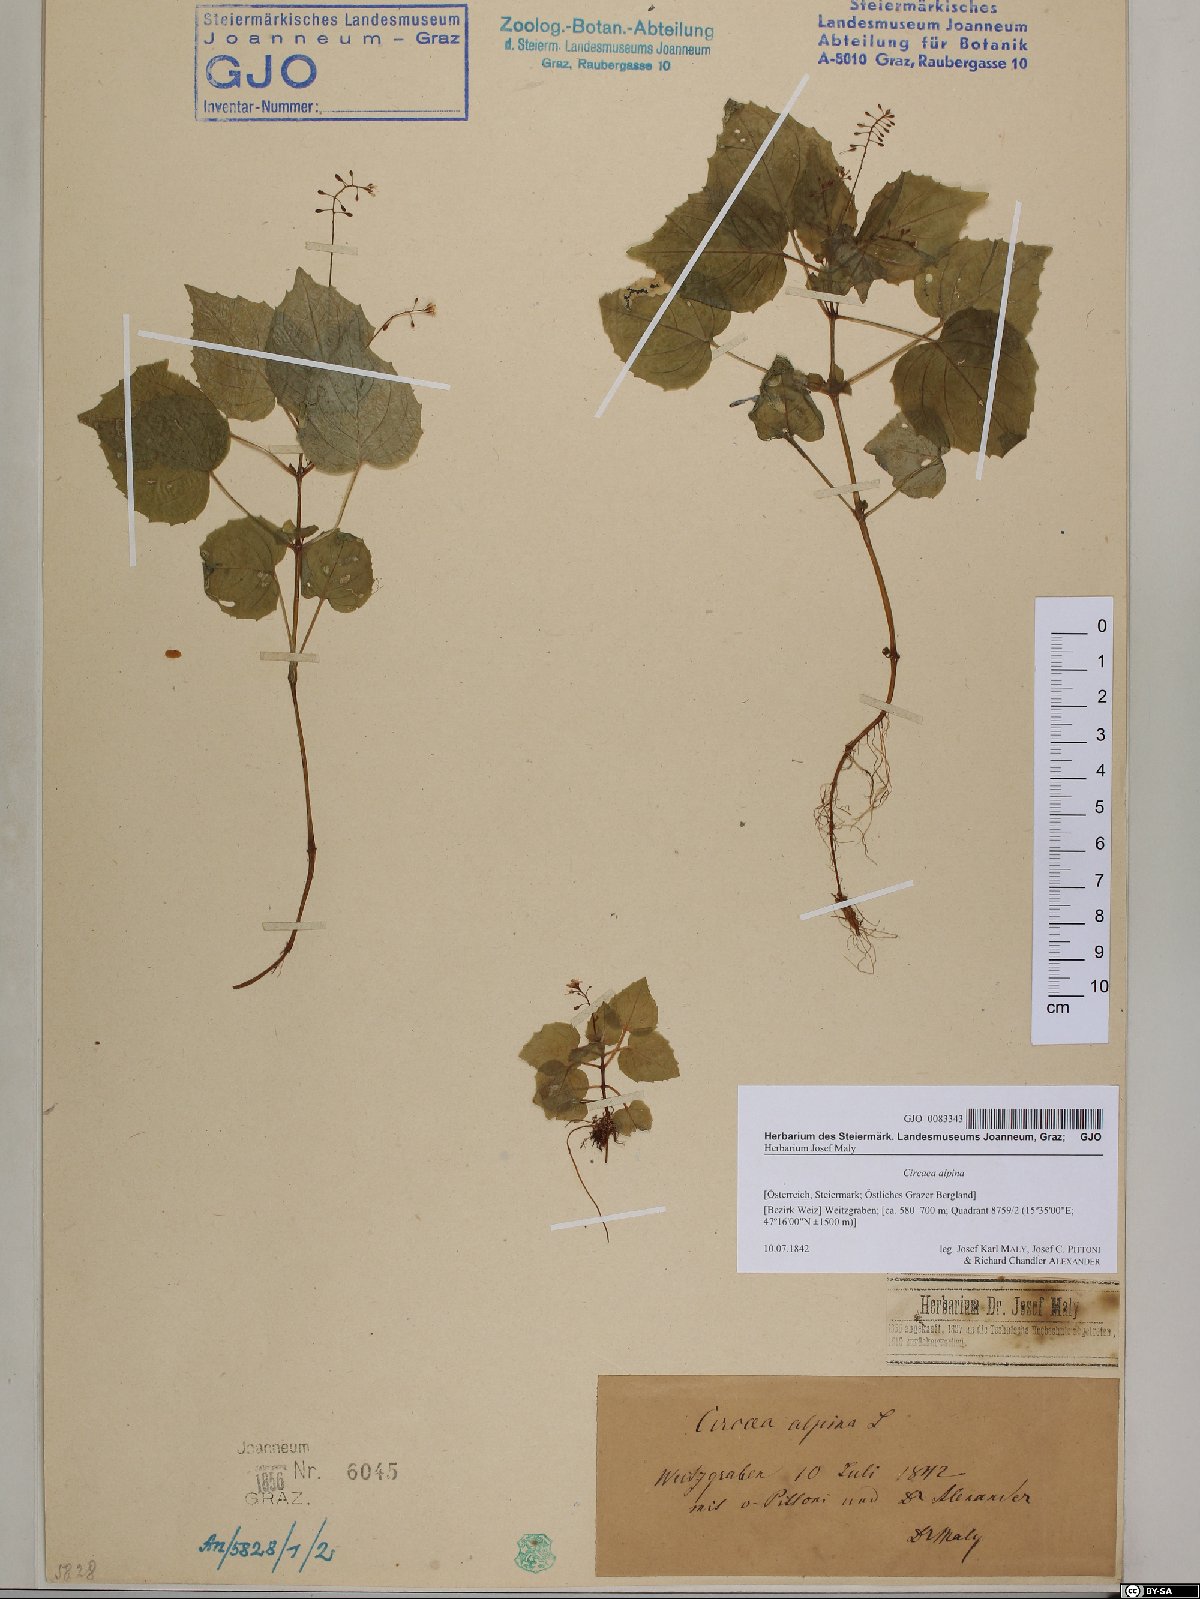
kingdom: Plantae
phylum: Tracheophyta
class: Magnoliopsida
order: Myrtales
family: Onagraceae
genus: Circaea
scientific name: Circaea alpina
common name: Alpine enchanter's-nightshade
